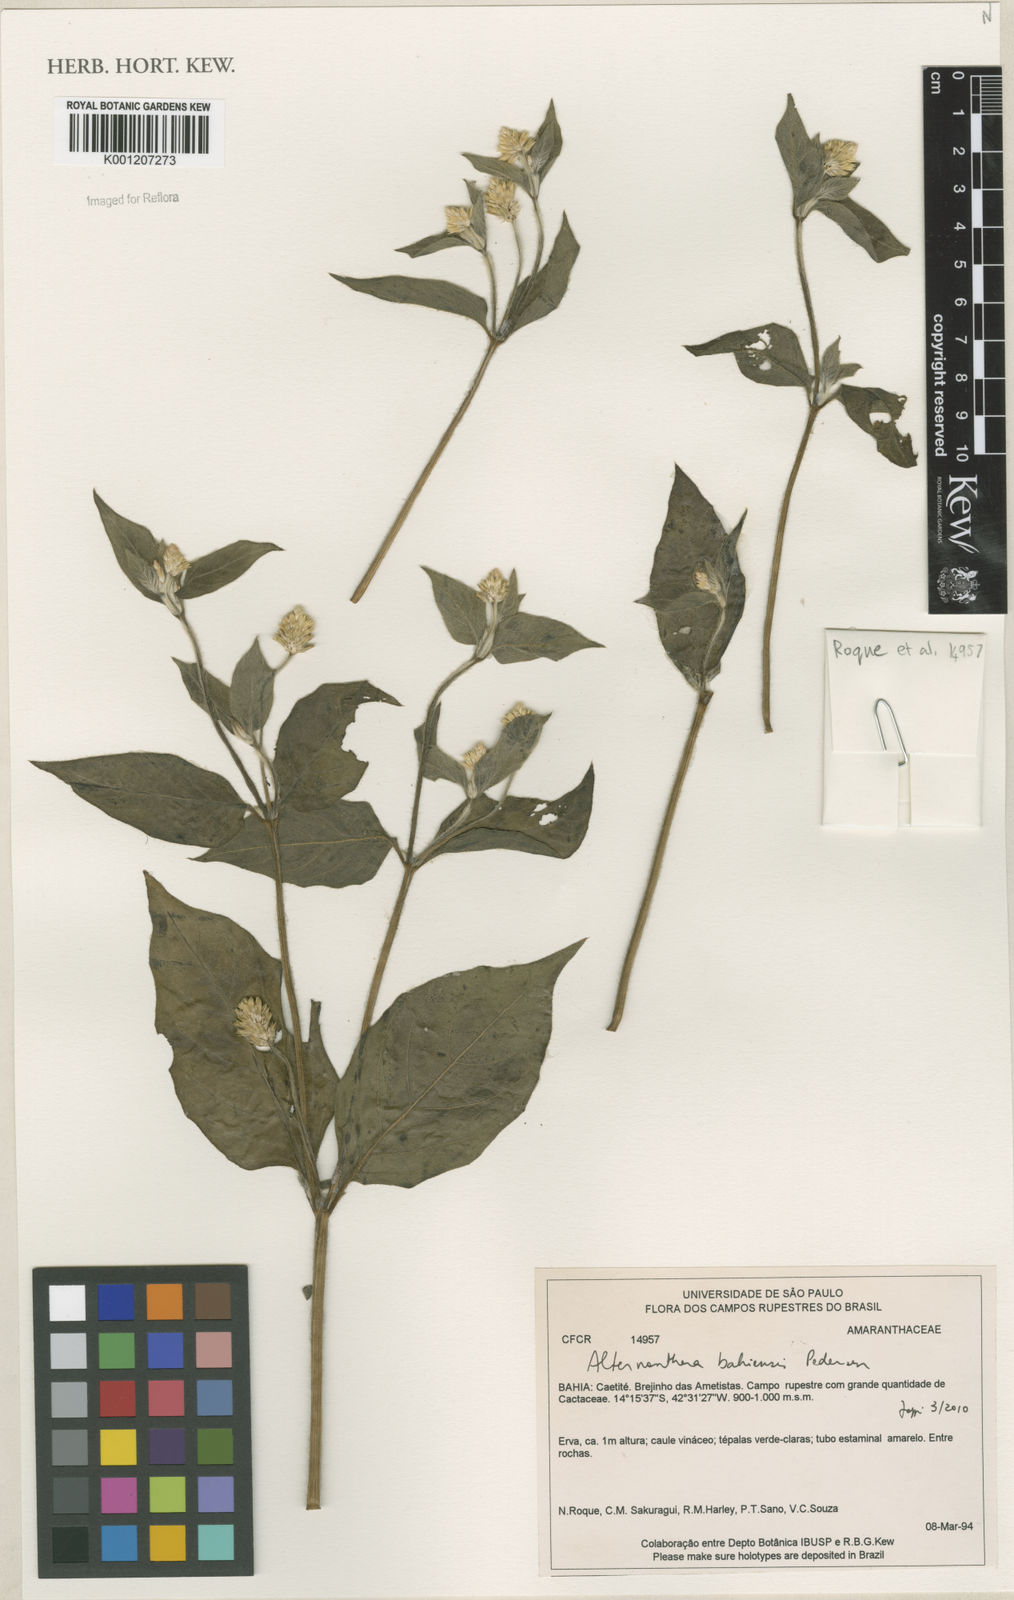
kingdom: Plantae
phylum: Tracheophyta
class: Magnoliopsida
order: Caryophyllales
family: Amaranthaceae
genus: Alternanthera
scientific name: Alternanthera bahiensis
